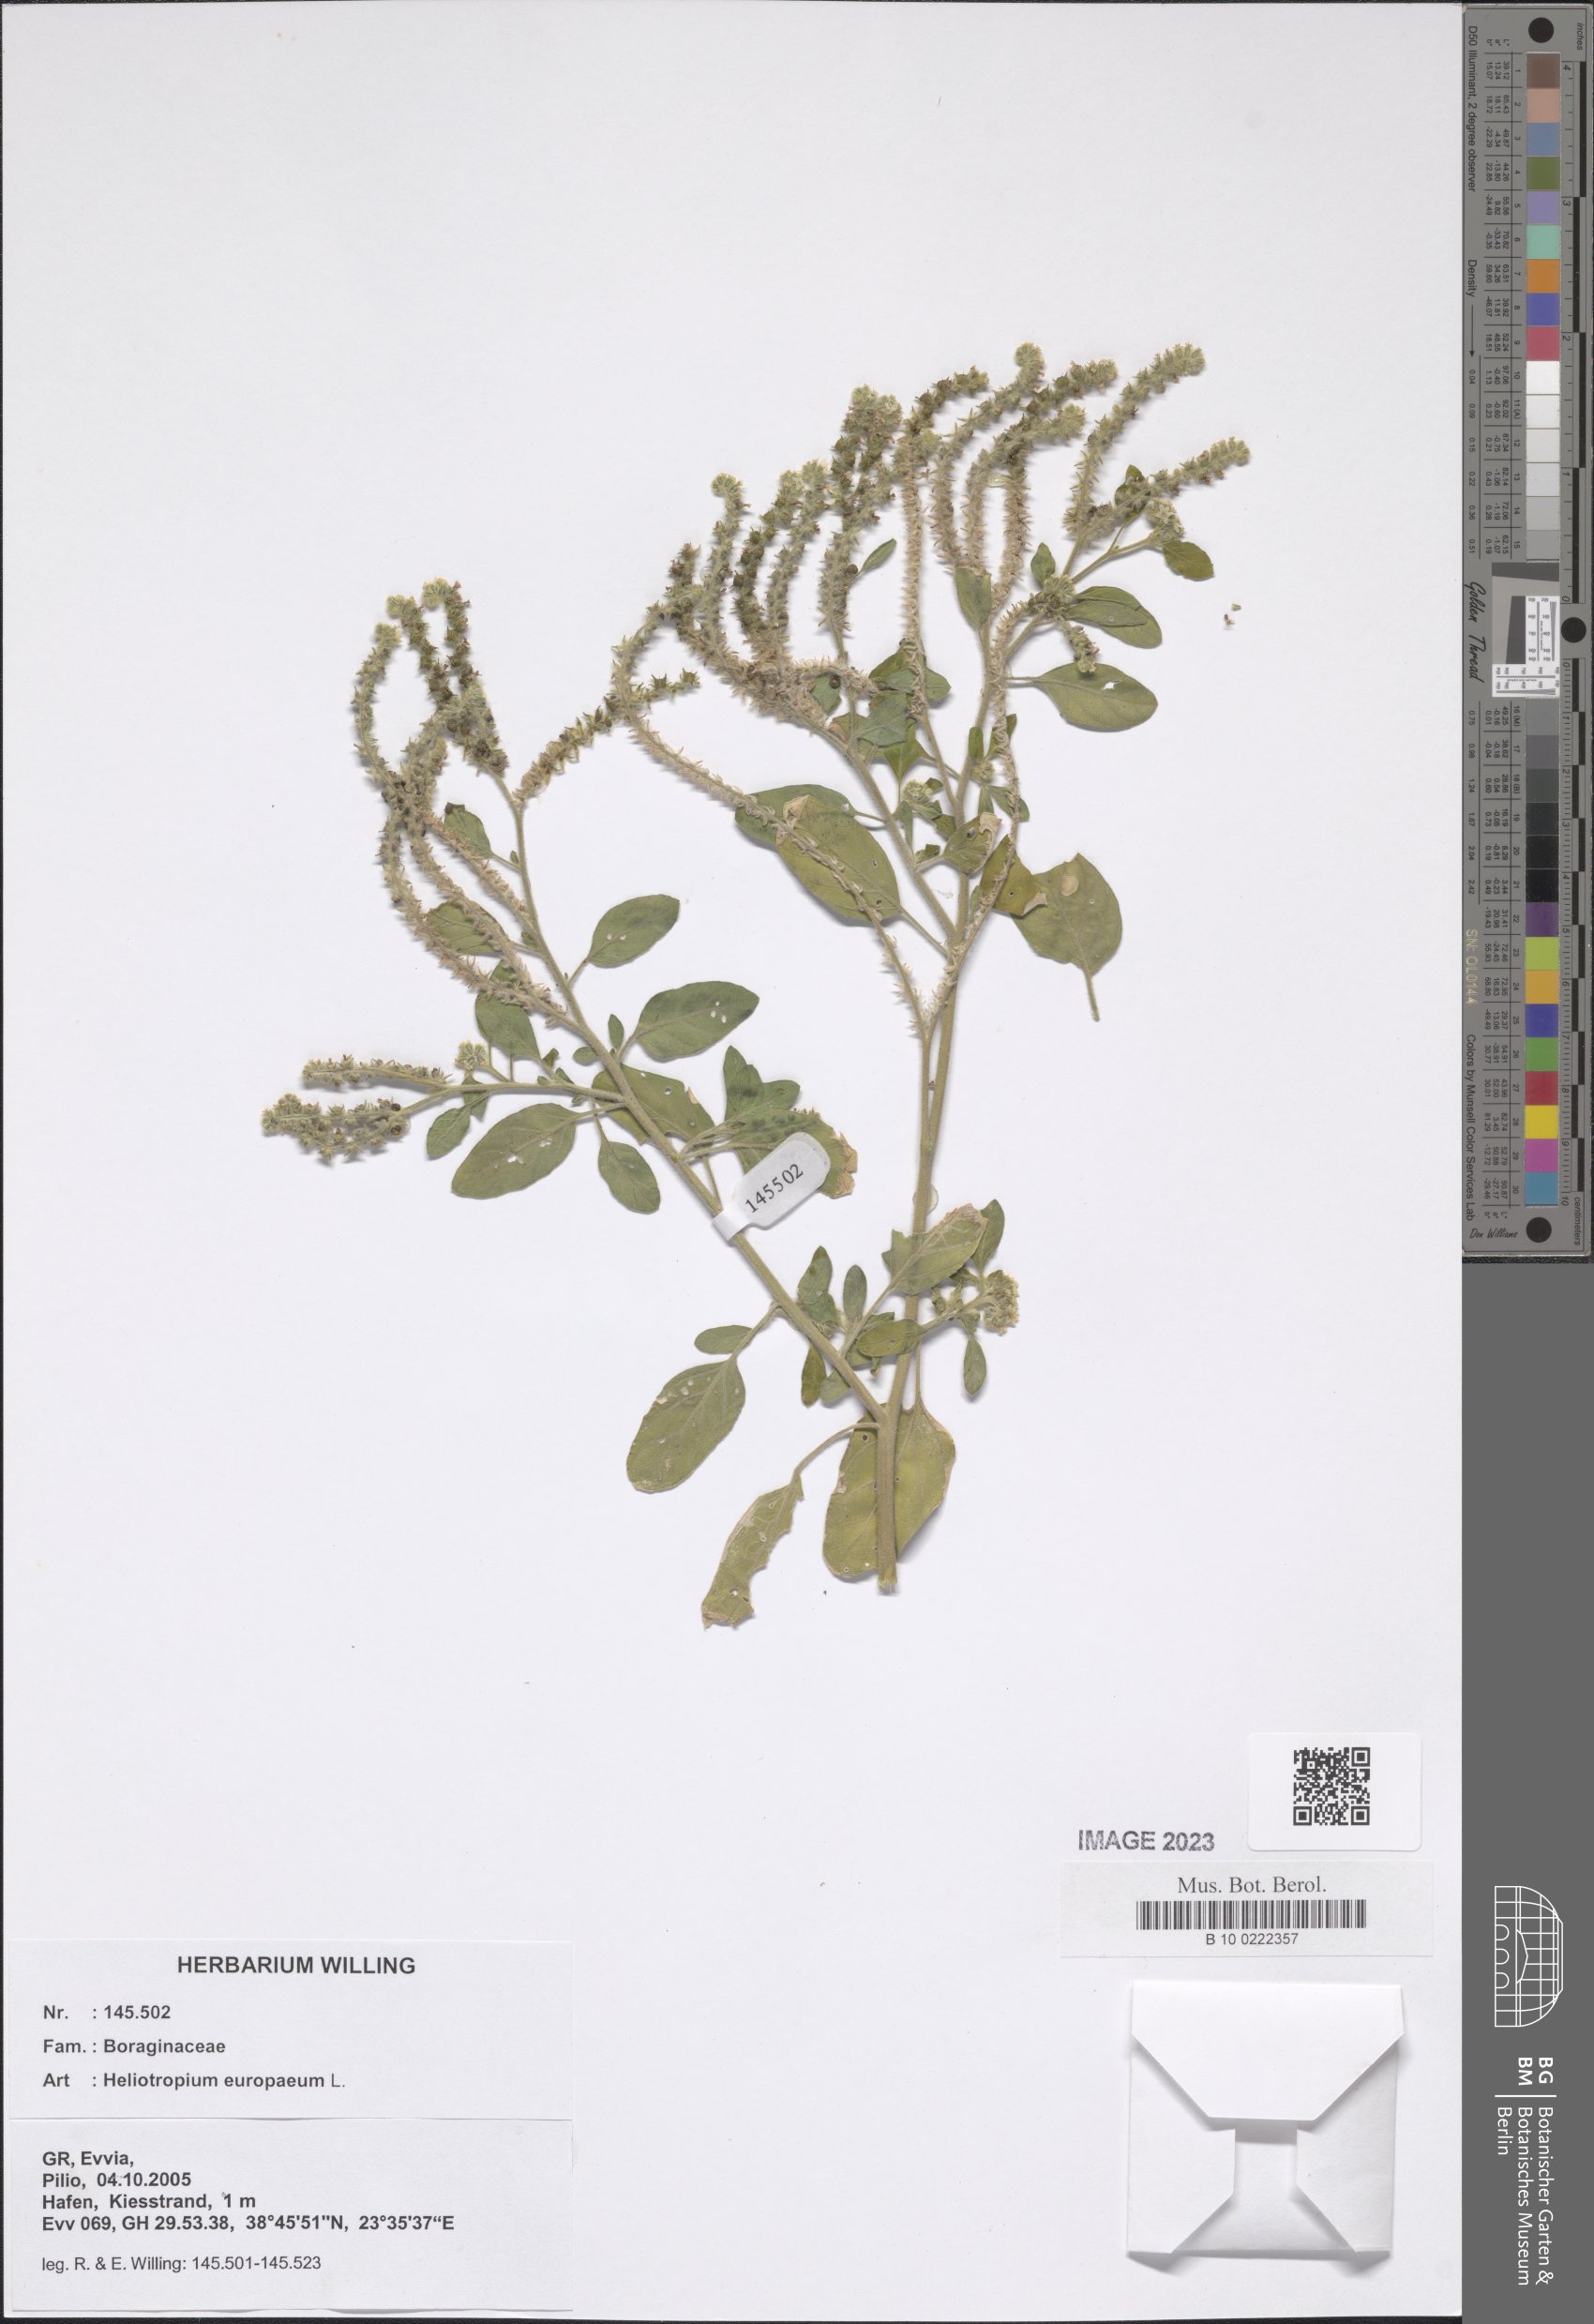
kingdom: Plantae
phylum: Tracheophyta
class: Magnoliopsida
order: Boraginales
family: Heliotropiaceae
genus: Heliotropium
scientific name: Heliotropium europaeum
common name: European heliotrope
